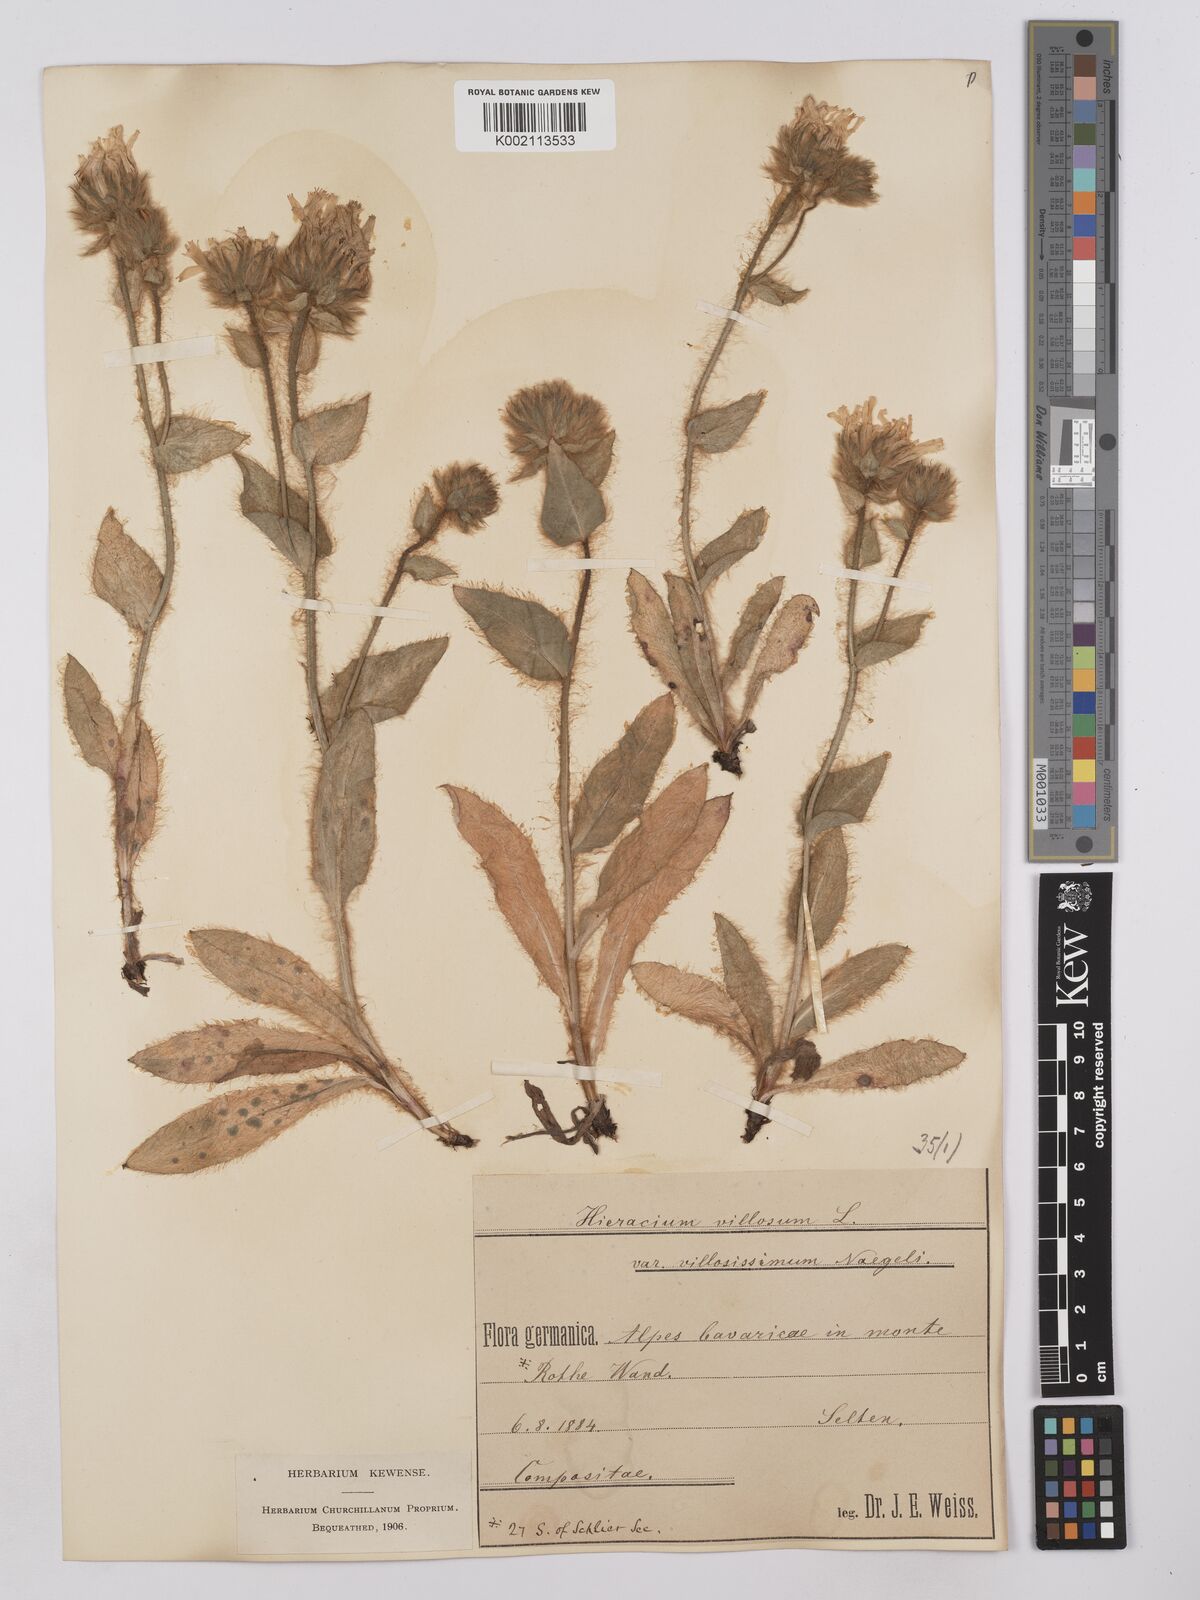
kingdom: Plantae
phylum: Tracheophyta
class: Magnoliopsida
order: Asterales
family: Asteraceae
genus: Hieracium
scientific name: Hieracium
